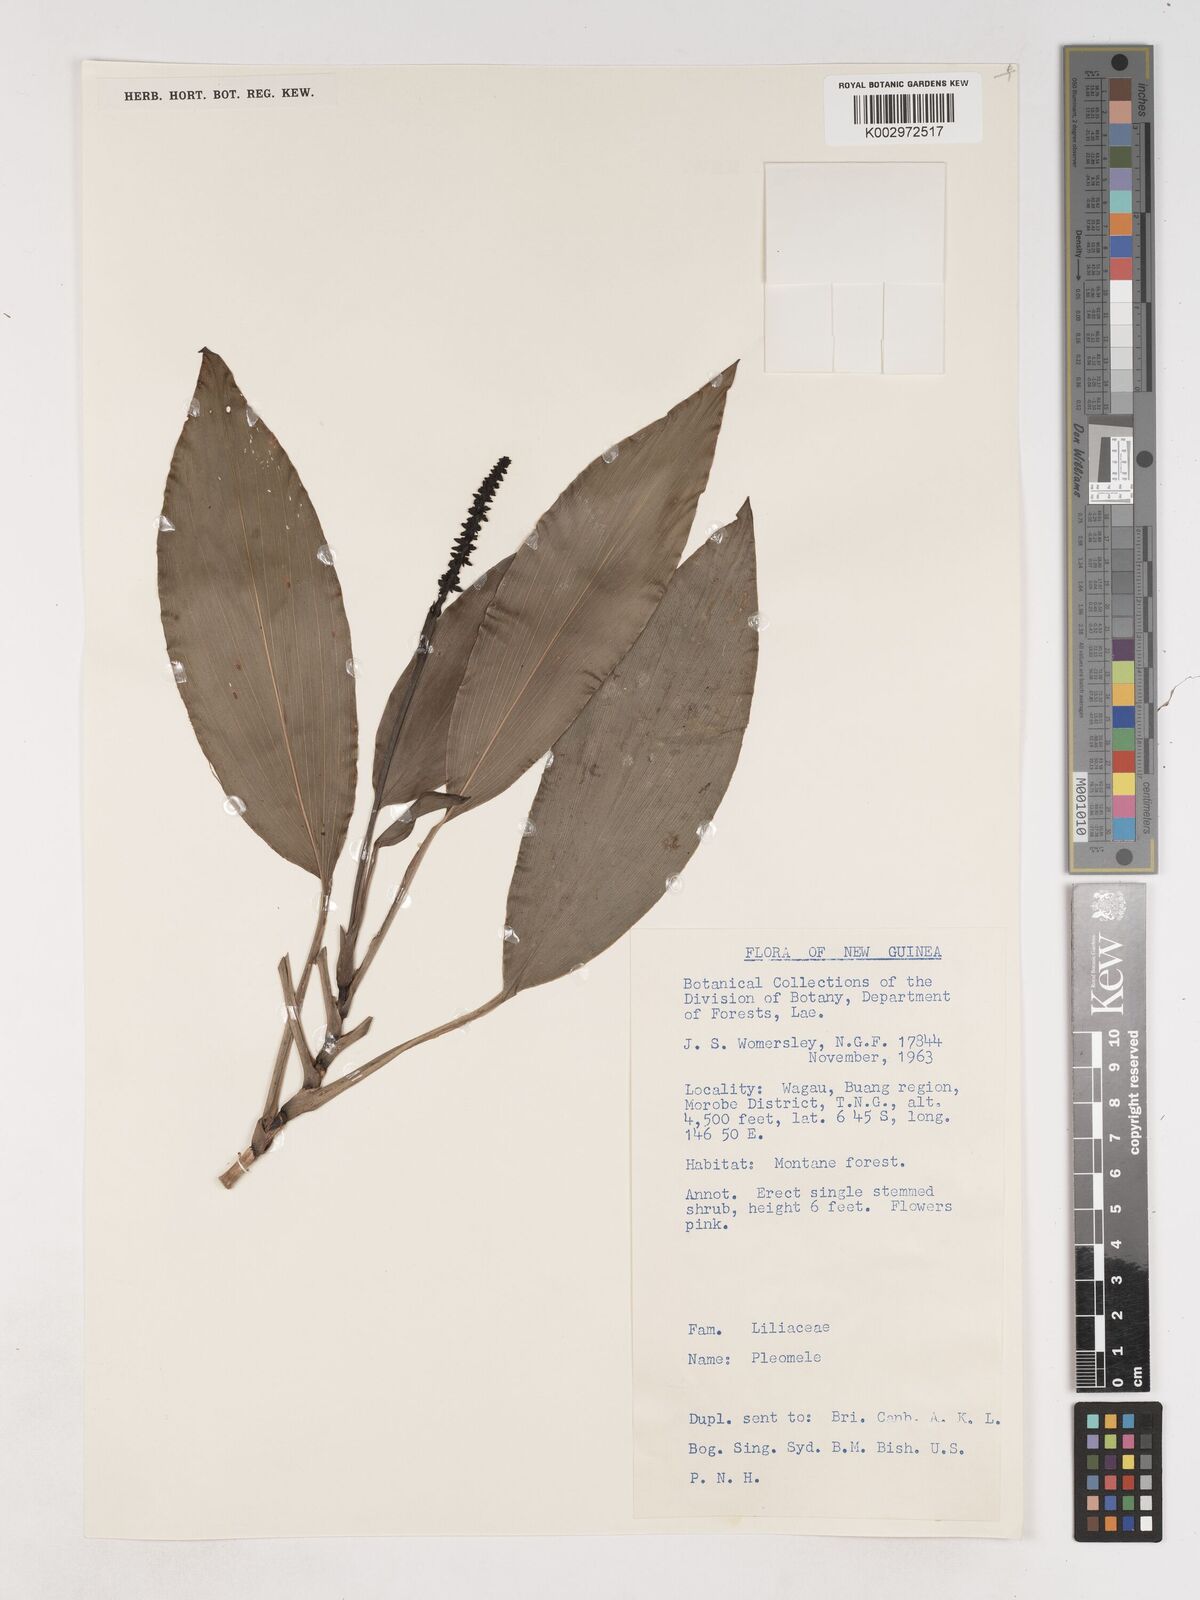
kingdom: Plantae
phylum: Tracheophyta
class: Liliopsida
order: Asparagales
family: Asparagaceae
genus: Cordyline
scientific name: Cordyline
